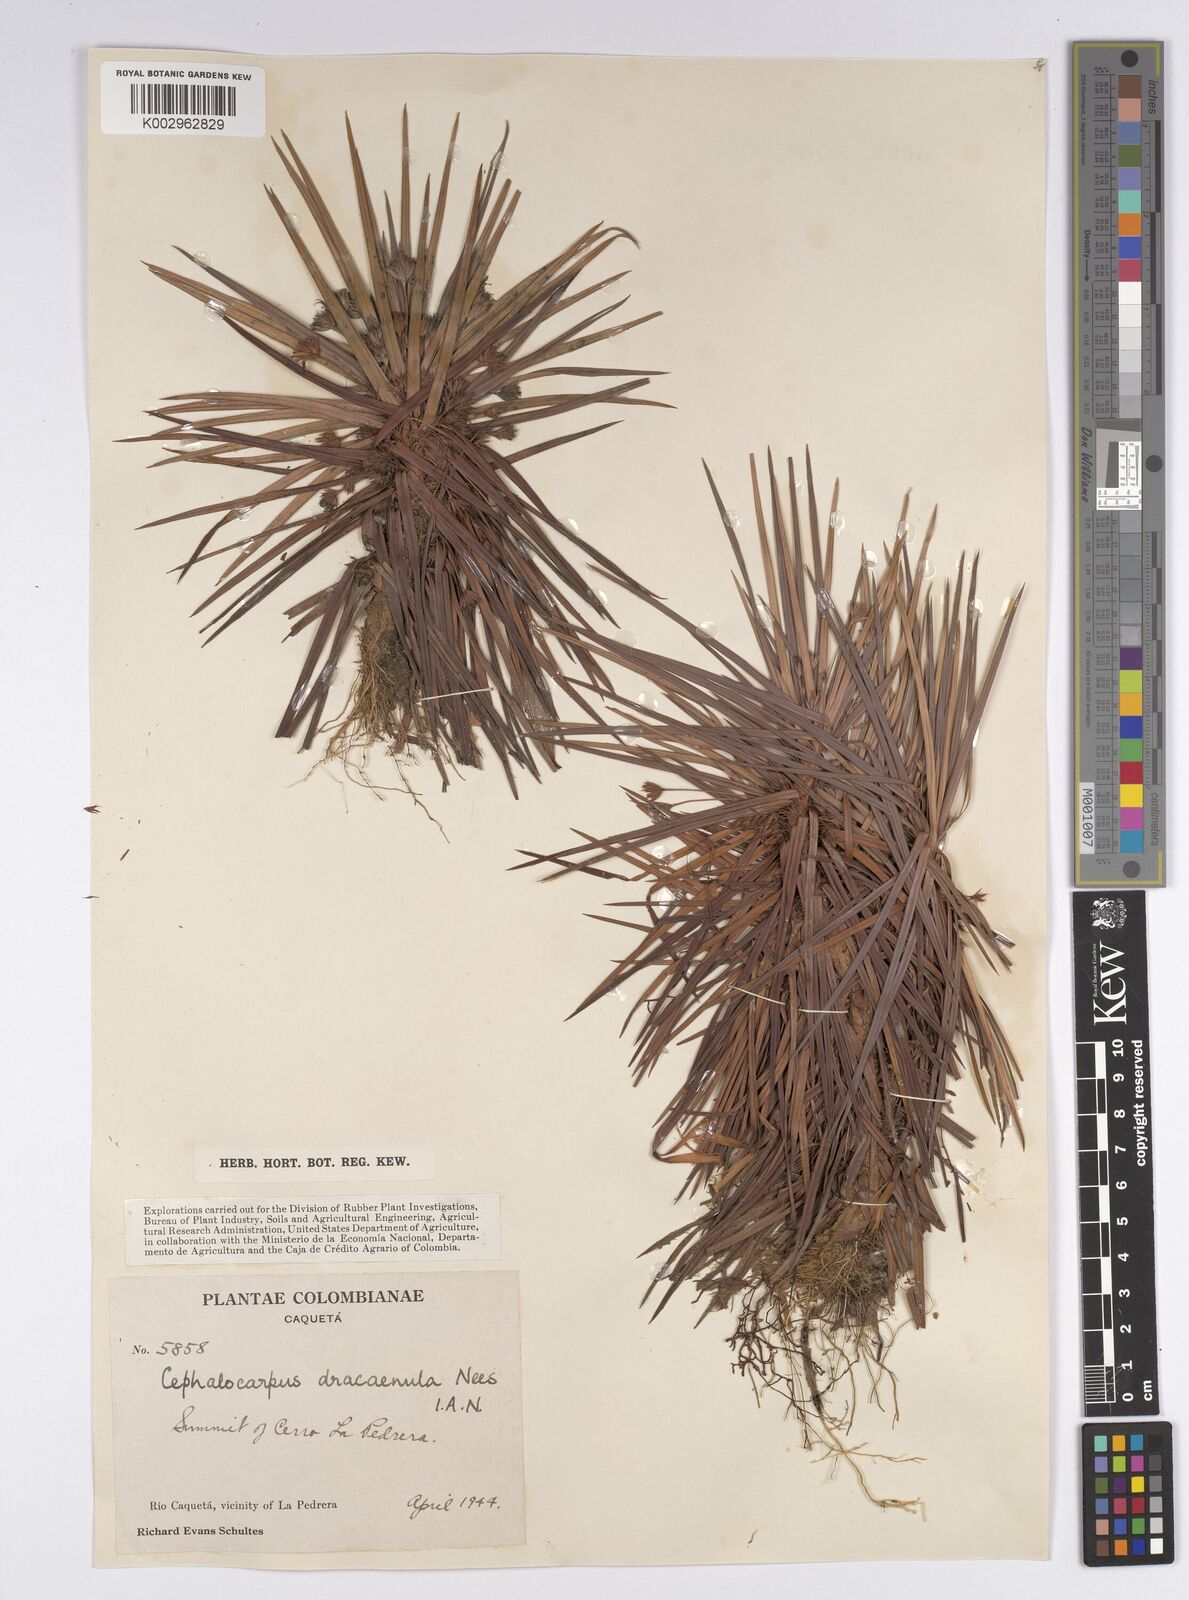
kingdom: Plantae
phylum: Tracheophyta
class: Liliopsida
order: Poales
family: Cyperaceae
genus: Cephalocarpus
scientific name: Cephalocarpus dracaenula
